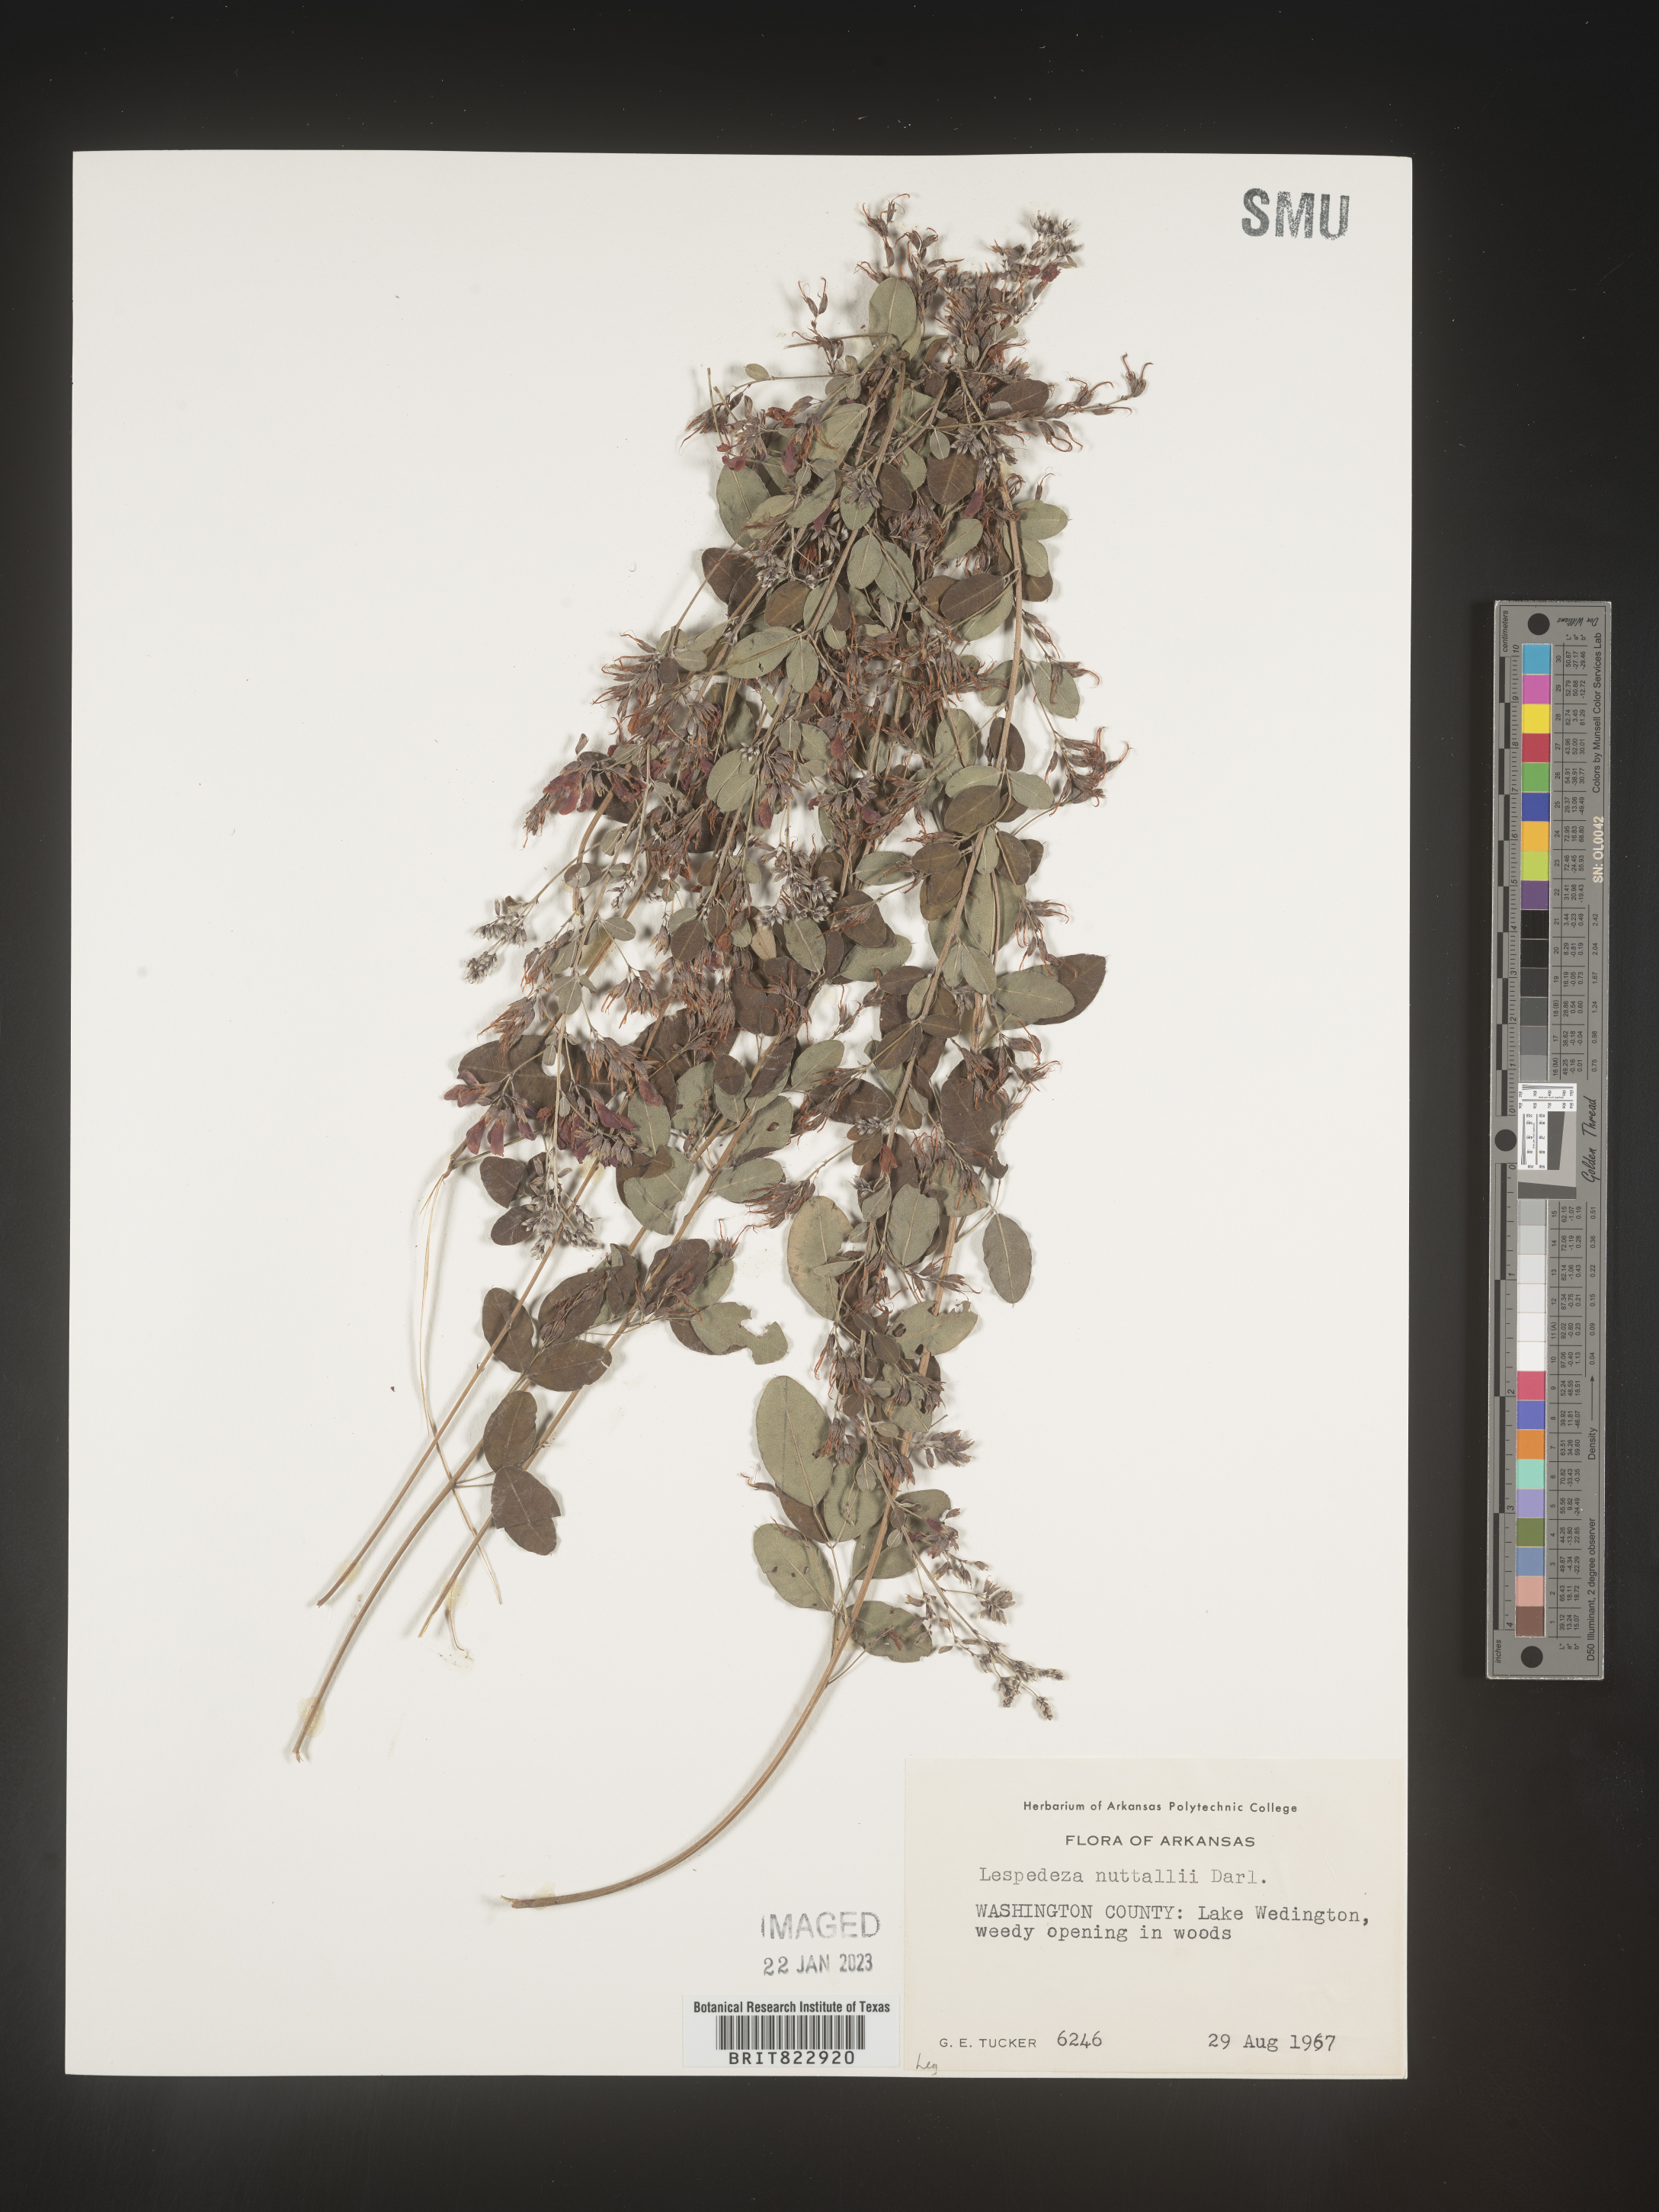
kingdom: Plantae
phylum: Tracheophyta
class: Magnoliopsida
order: Fabales
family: Fabaceae
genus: Lespedeza
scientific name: Lespedeza
